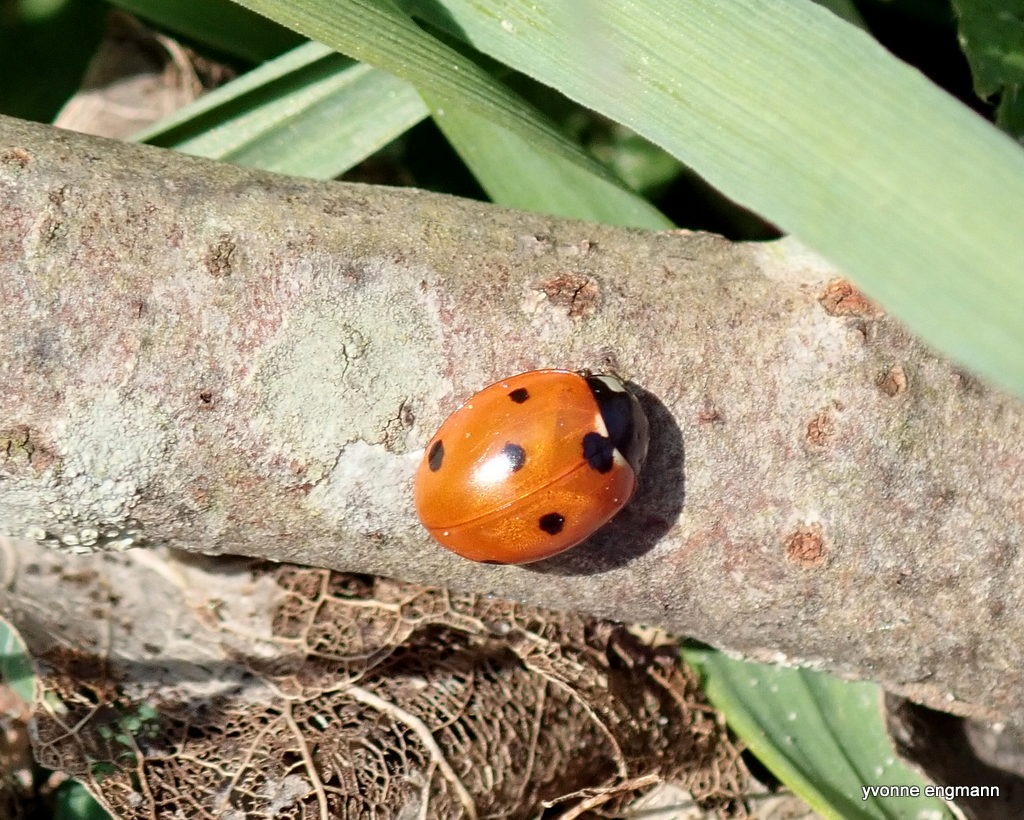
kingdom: Animalia
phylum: Arthropoda
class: Insecta
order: Coleoptera
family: Coccinellidae
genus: Coccinella
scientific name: Coccinella septempunctata
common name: Syvplettet mariehøne
